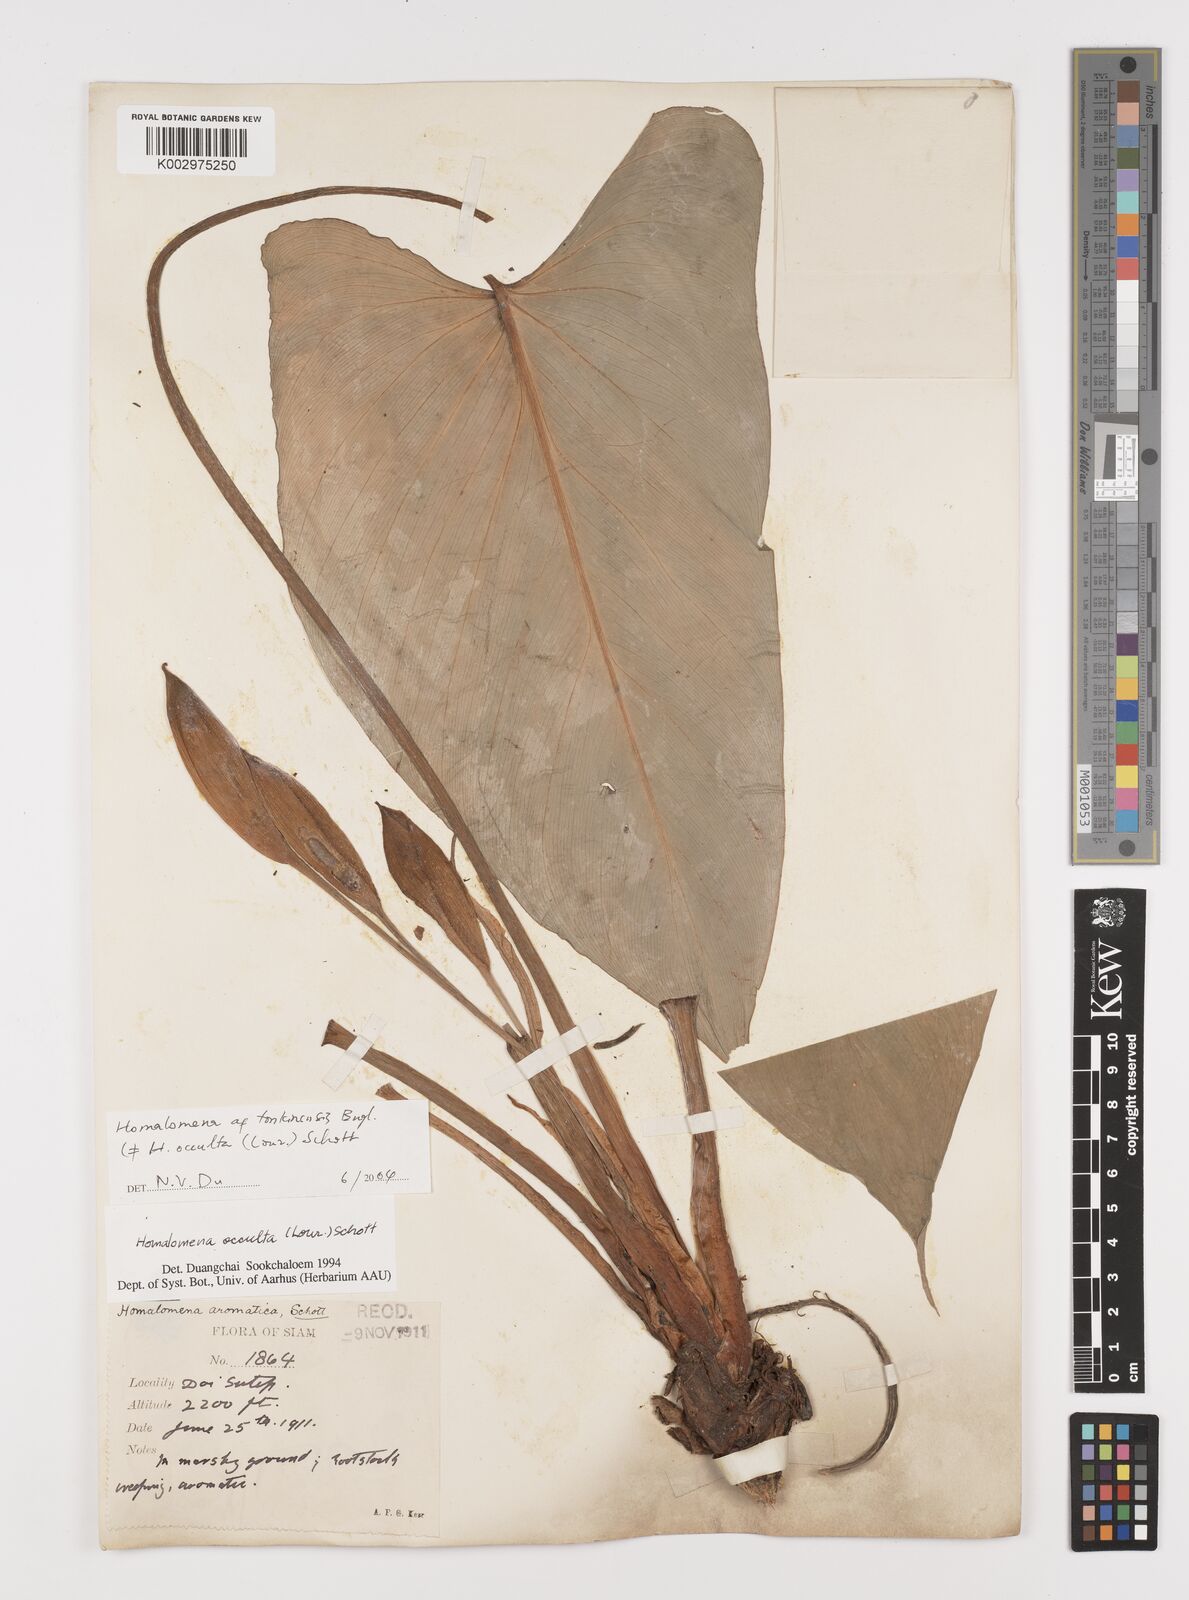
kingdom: Plantae
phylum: Tracheophyta
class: Liliopsida
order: Alismatales
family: Araceae
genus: Homalomena
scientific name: Homalomena occulta
